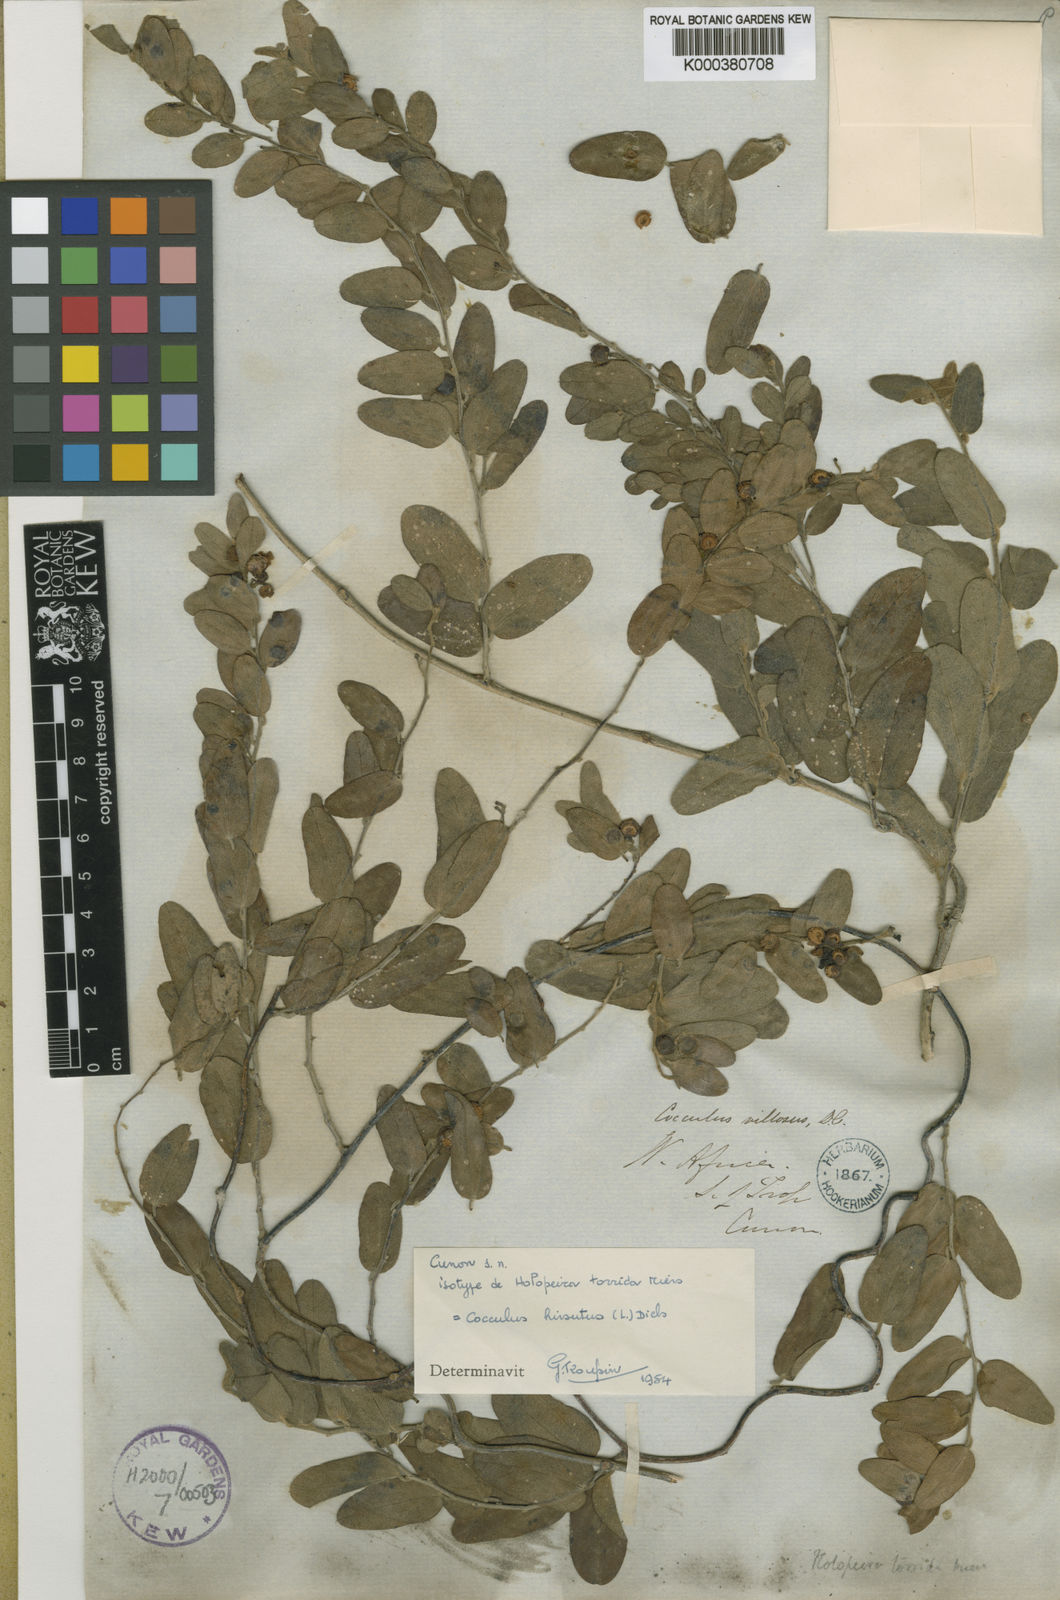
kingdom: Plantae
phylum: Tracheophyta
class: Magnoliopsida
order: Ranunculales
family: Menispermaceae
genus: Cocculus
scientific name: Cocculus
